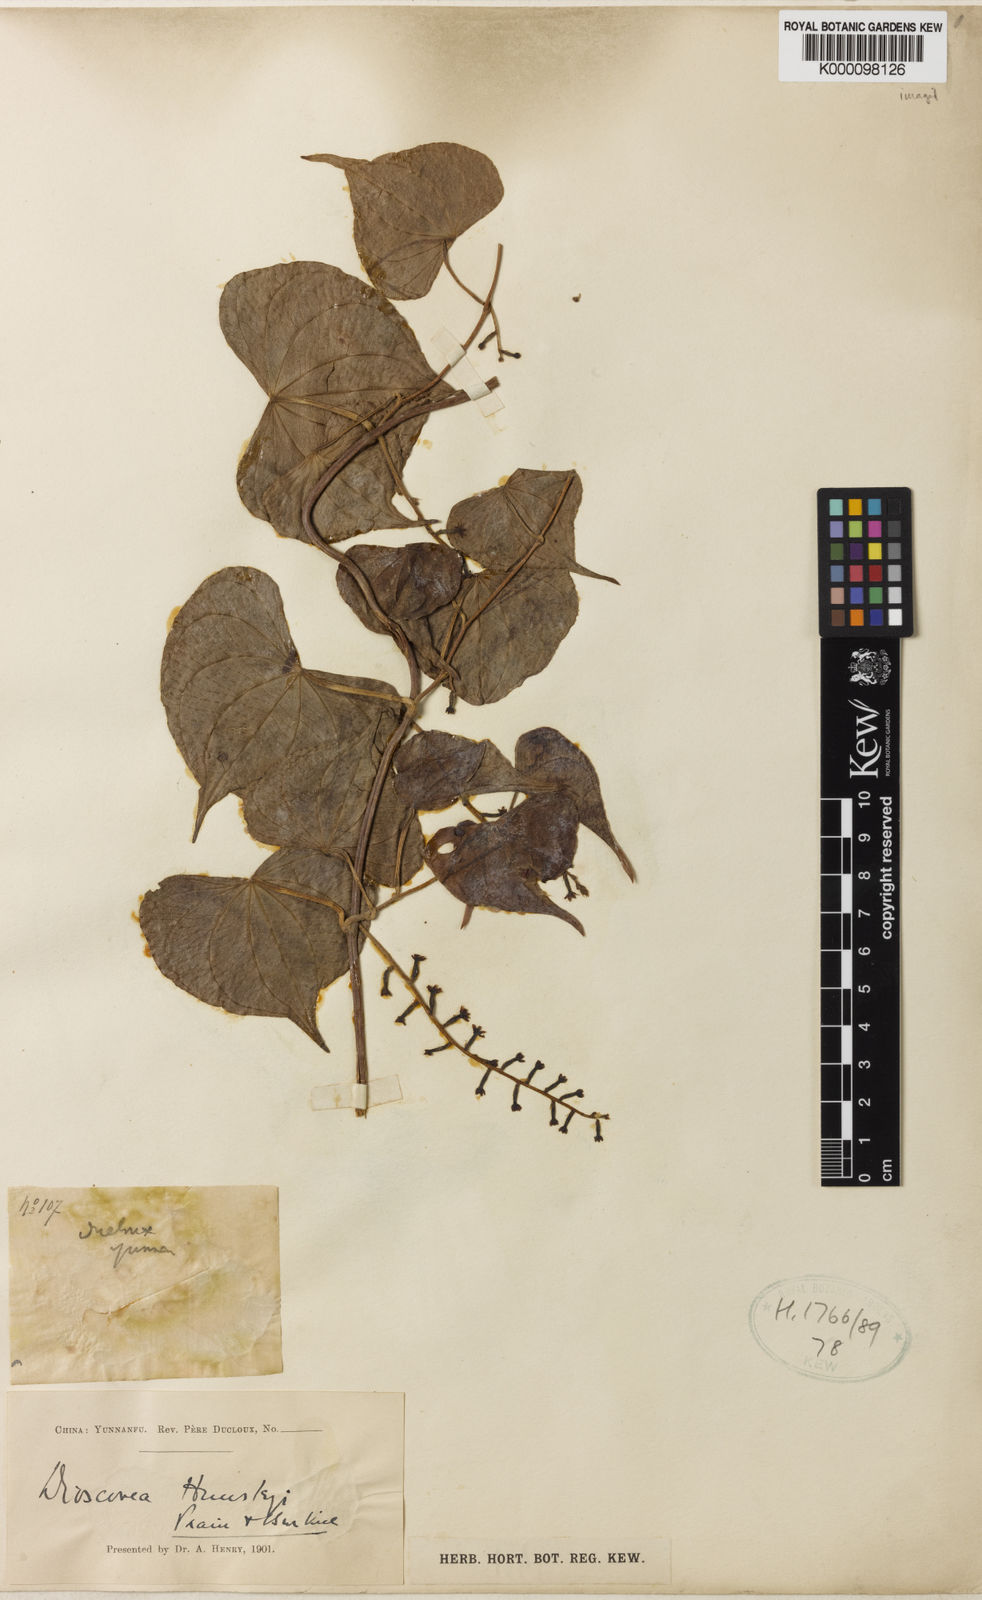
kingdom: Plantae
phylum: Tracheophyta
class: Liliopsida
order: Dioscoreales
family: Dioscoreaceae
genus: Dioscorea
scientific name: Dioscorea subcalva
